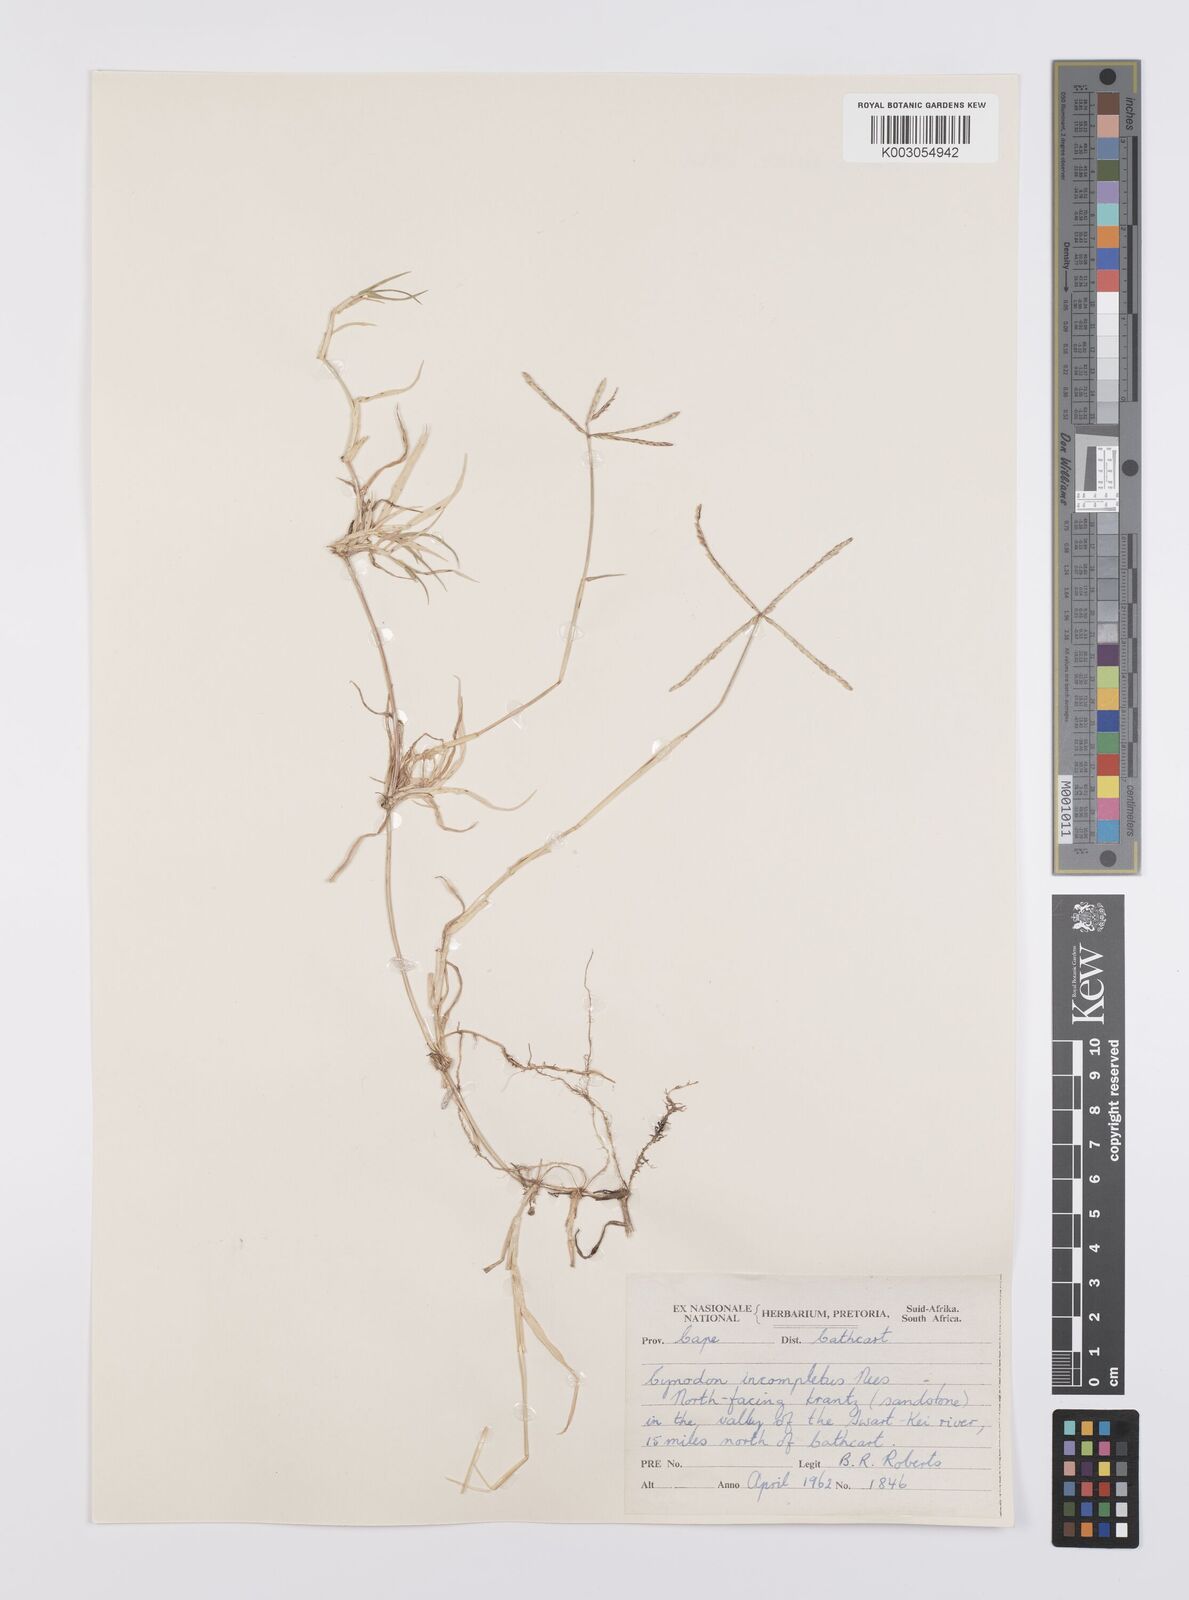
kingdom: Plantae
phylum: Tracheophyta
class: Liliopsida
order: Poales
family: Poaceae
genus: Cynodon
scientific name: Cynodon dactylon
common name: Bermuda grass
